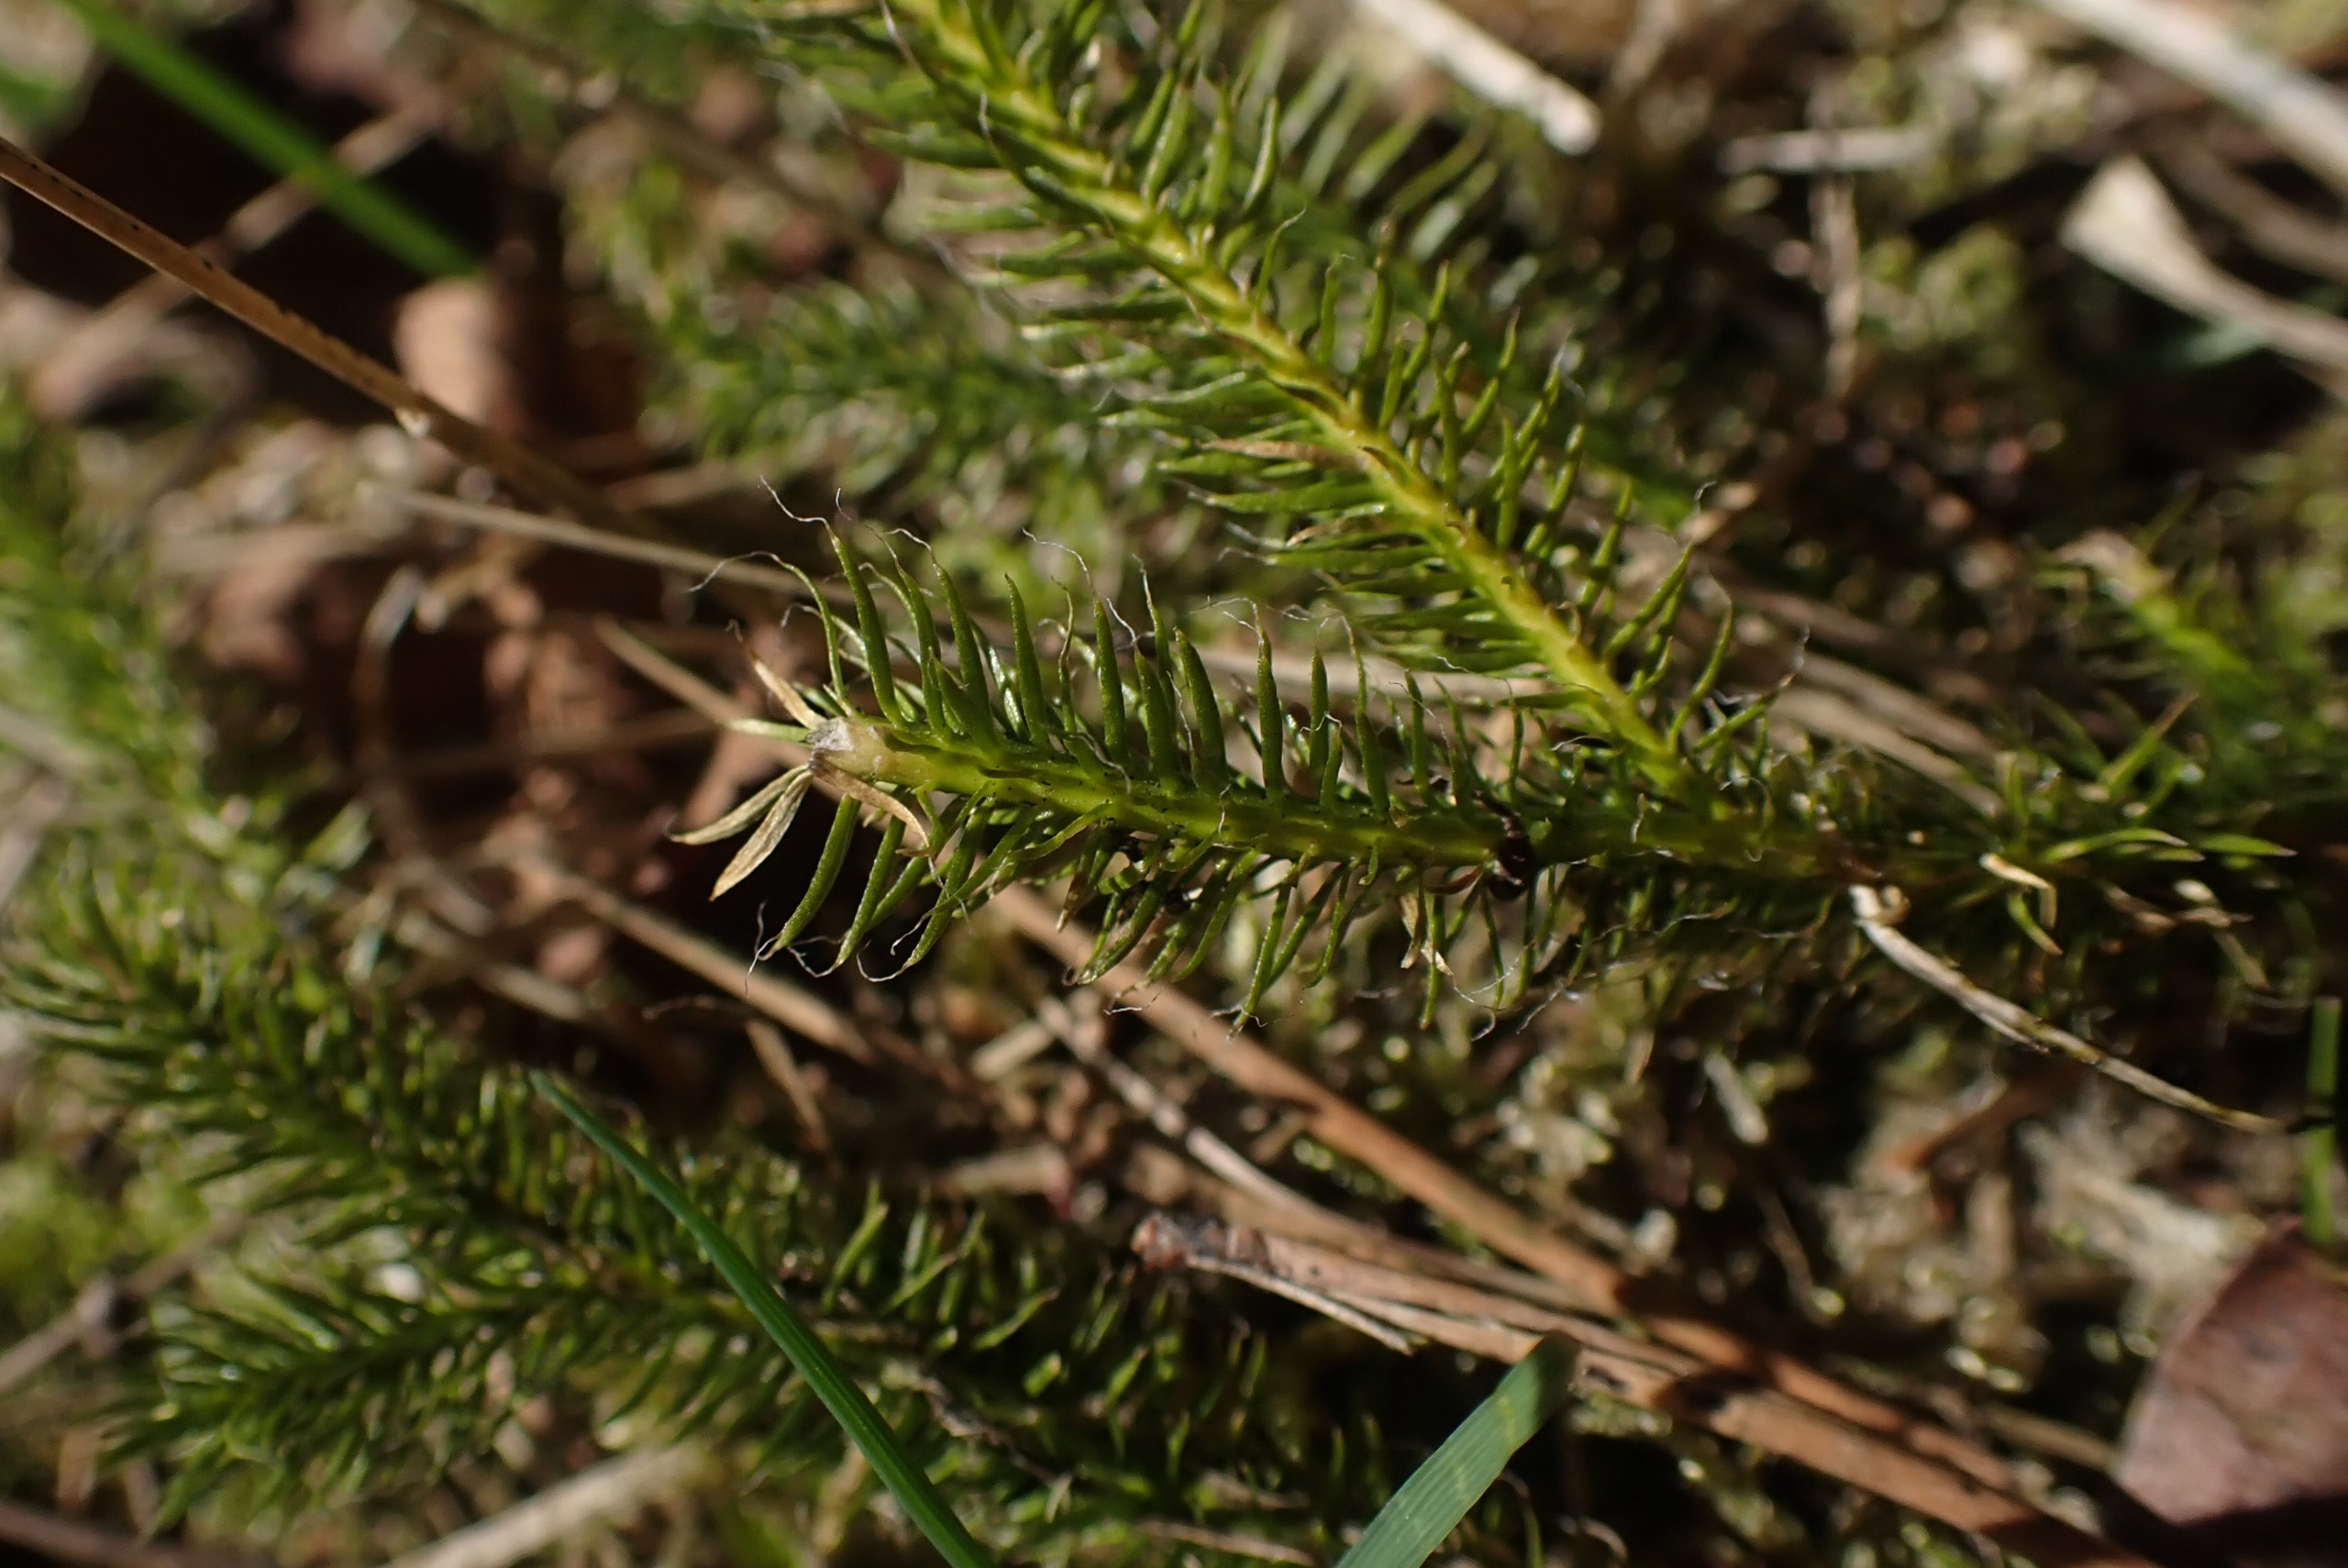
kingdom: Plantae
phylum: Tracheophyta
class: Lycopodiopsida
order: Lycopodiales
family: Lycopodiaceae
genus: Lycopodium
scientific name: Lycopodium clavatum
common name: Almindelig ulvefod
